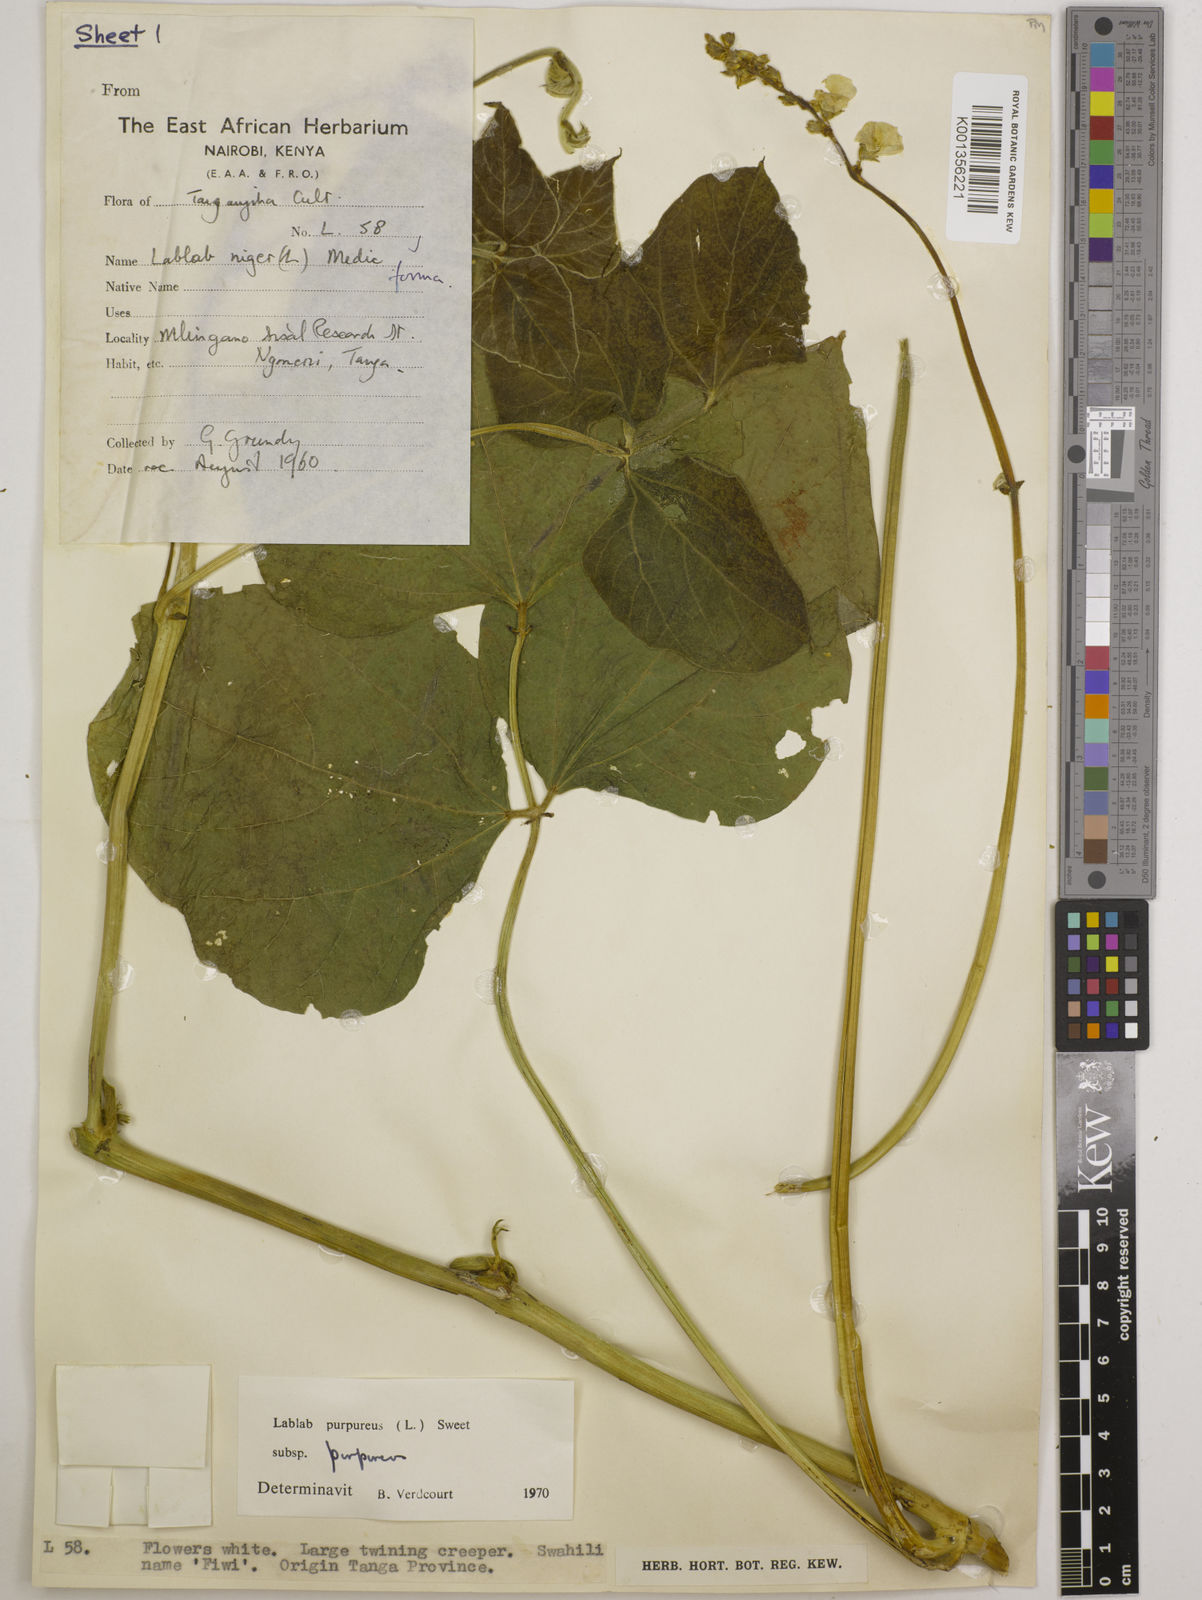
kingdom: Plantae
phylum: Tracheophyta
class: Magnoliopsida
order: Fabales
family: Fabaceae
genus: Lablab
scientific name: Lablab purpureus
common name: Lablab-bean
